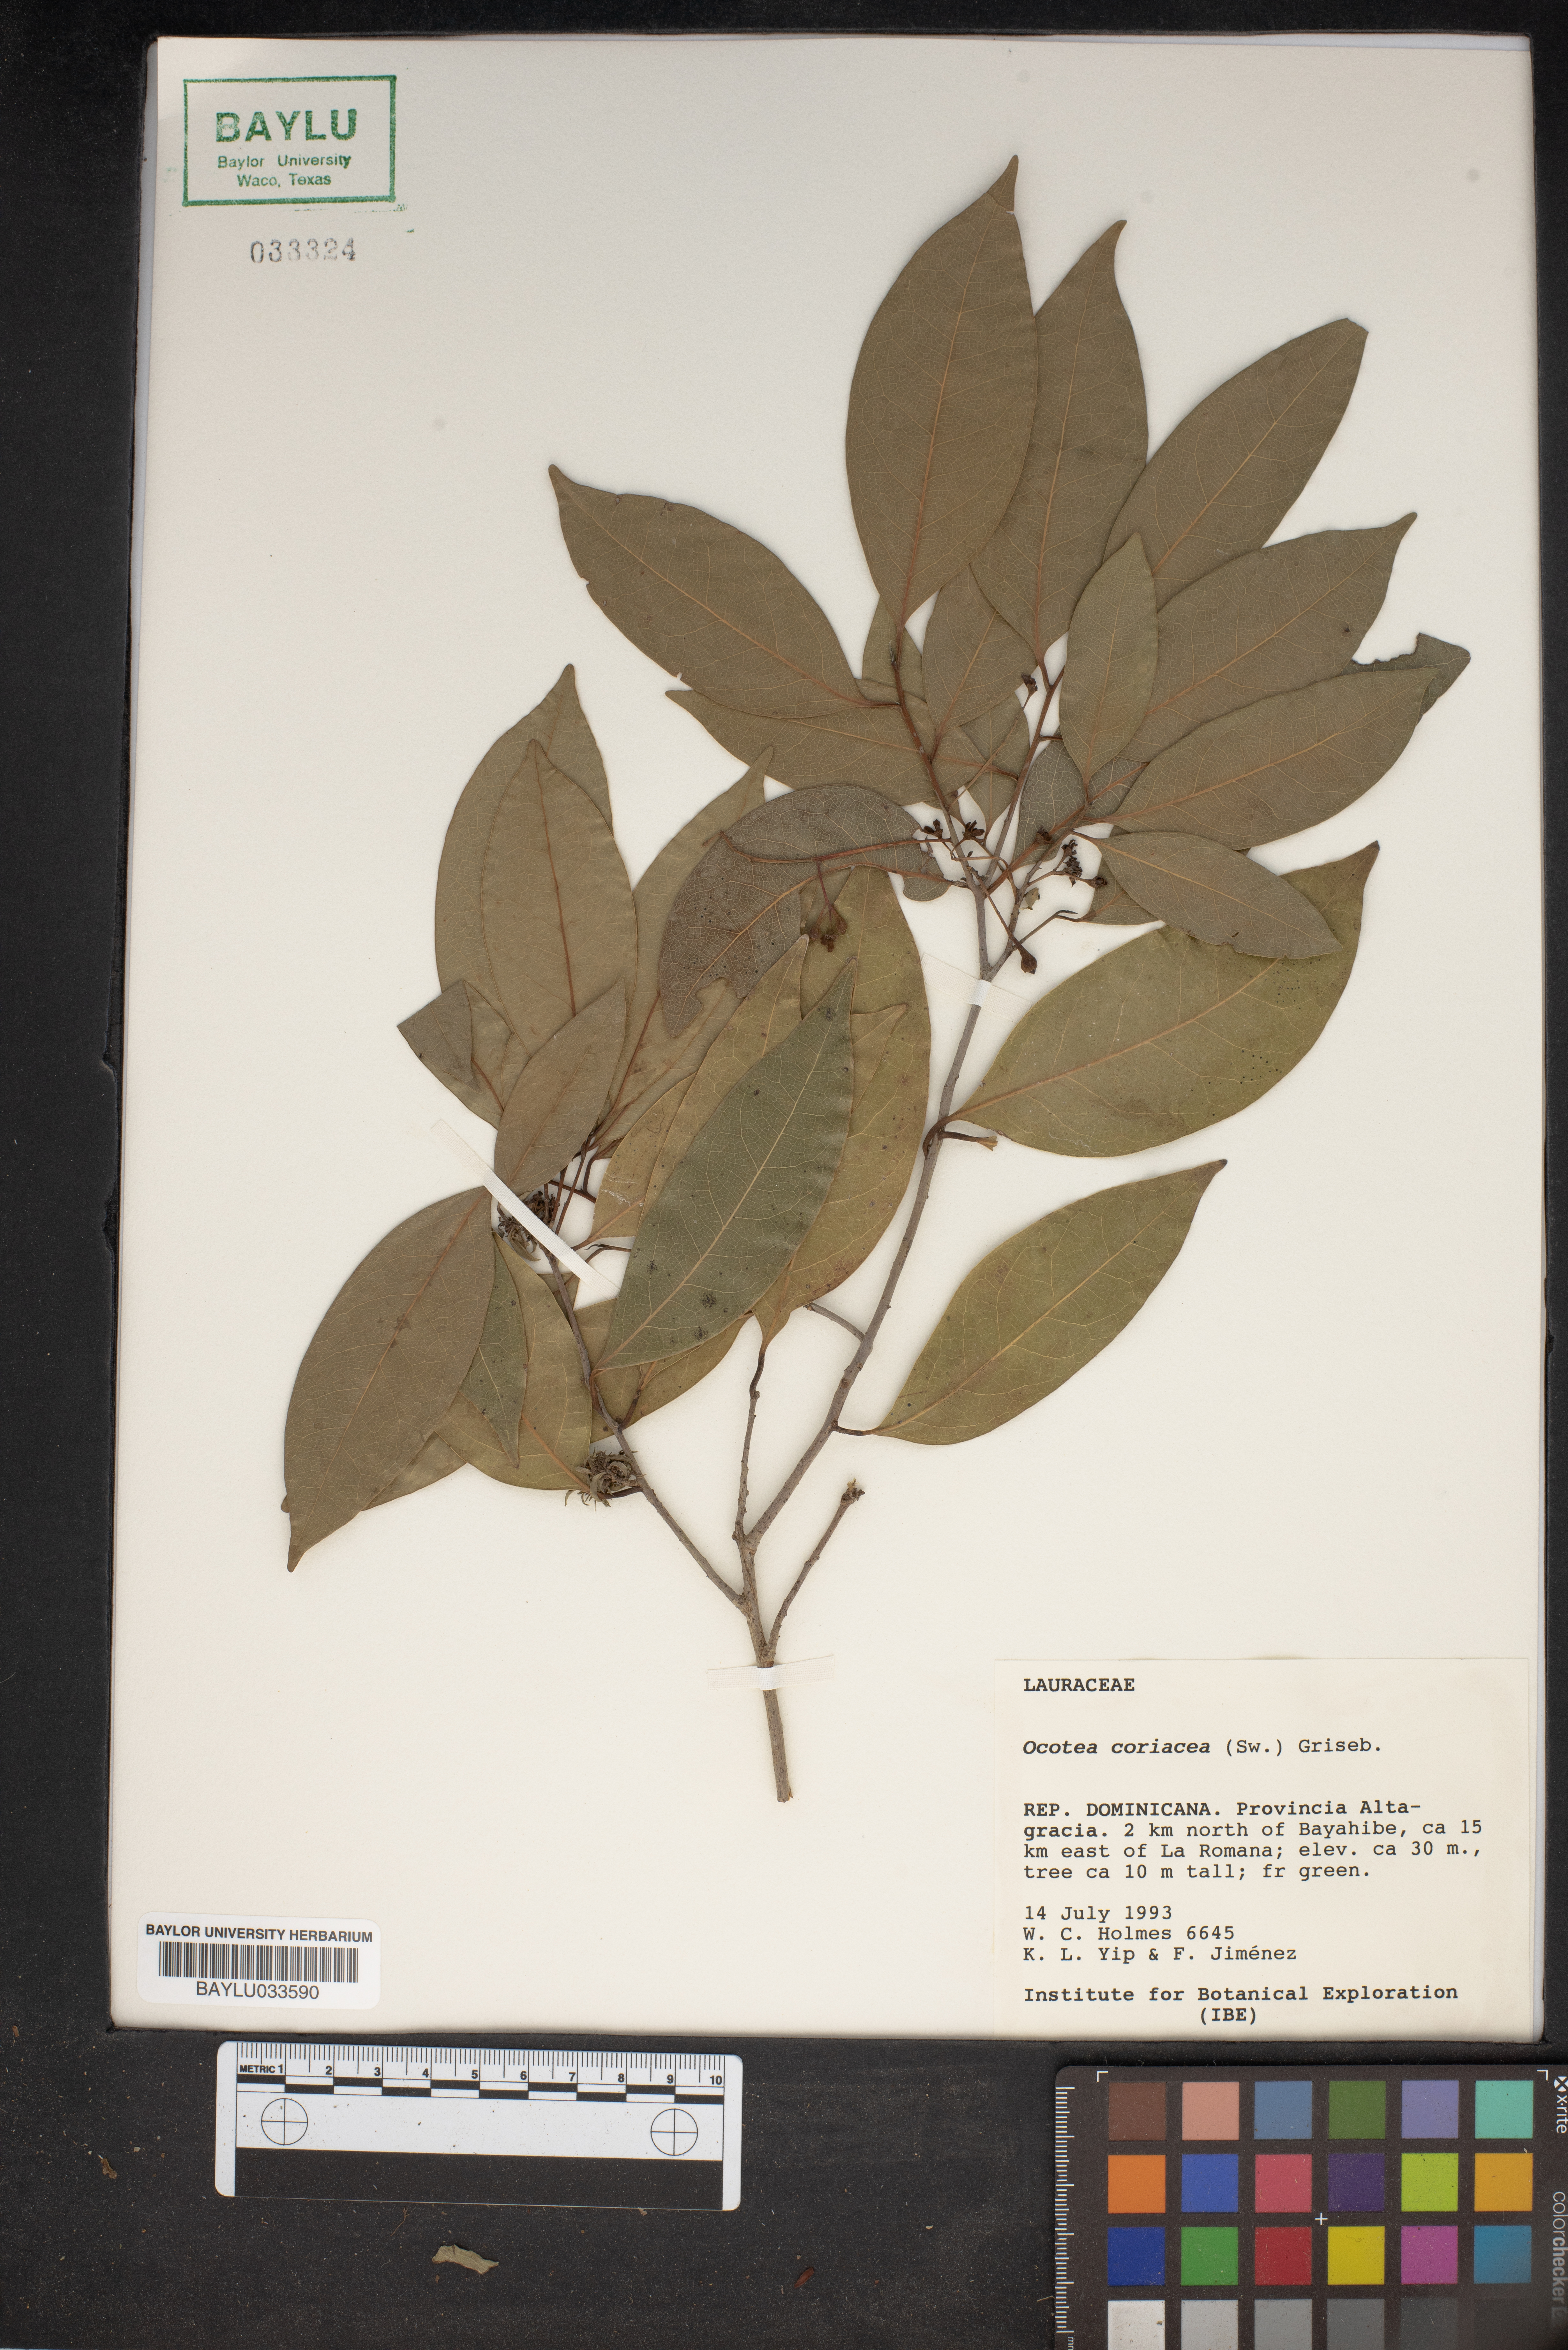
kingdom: Plantae
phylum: Tracheophyta
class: Magnoliopsida
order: Laurales
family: Lauraceae
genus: Damburneya
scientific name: Damburneya coriacea
